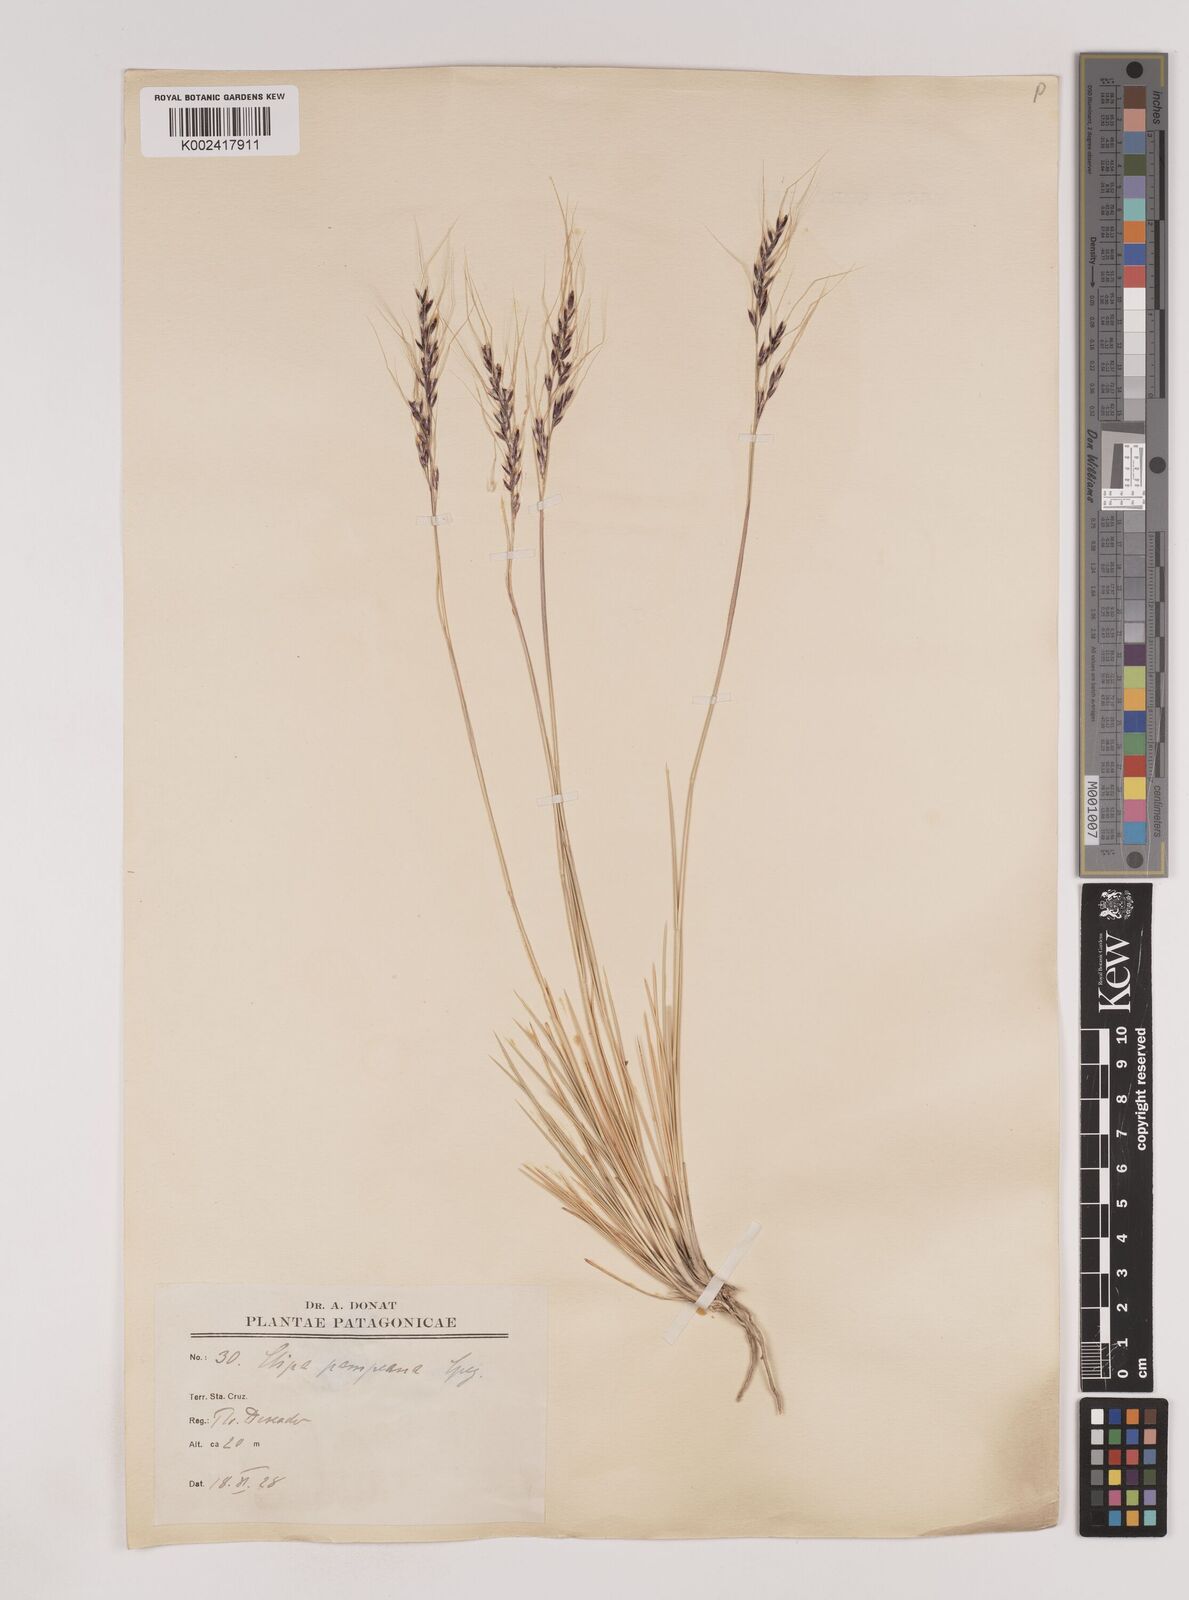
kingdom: Plantae
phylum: Tracheophyta
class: Liliopsida
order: Poales
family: Poaceae
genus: Nassella
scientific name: Nassella pampeana
